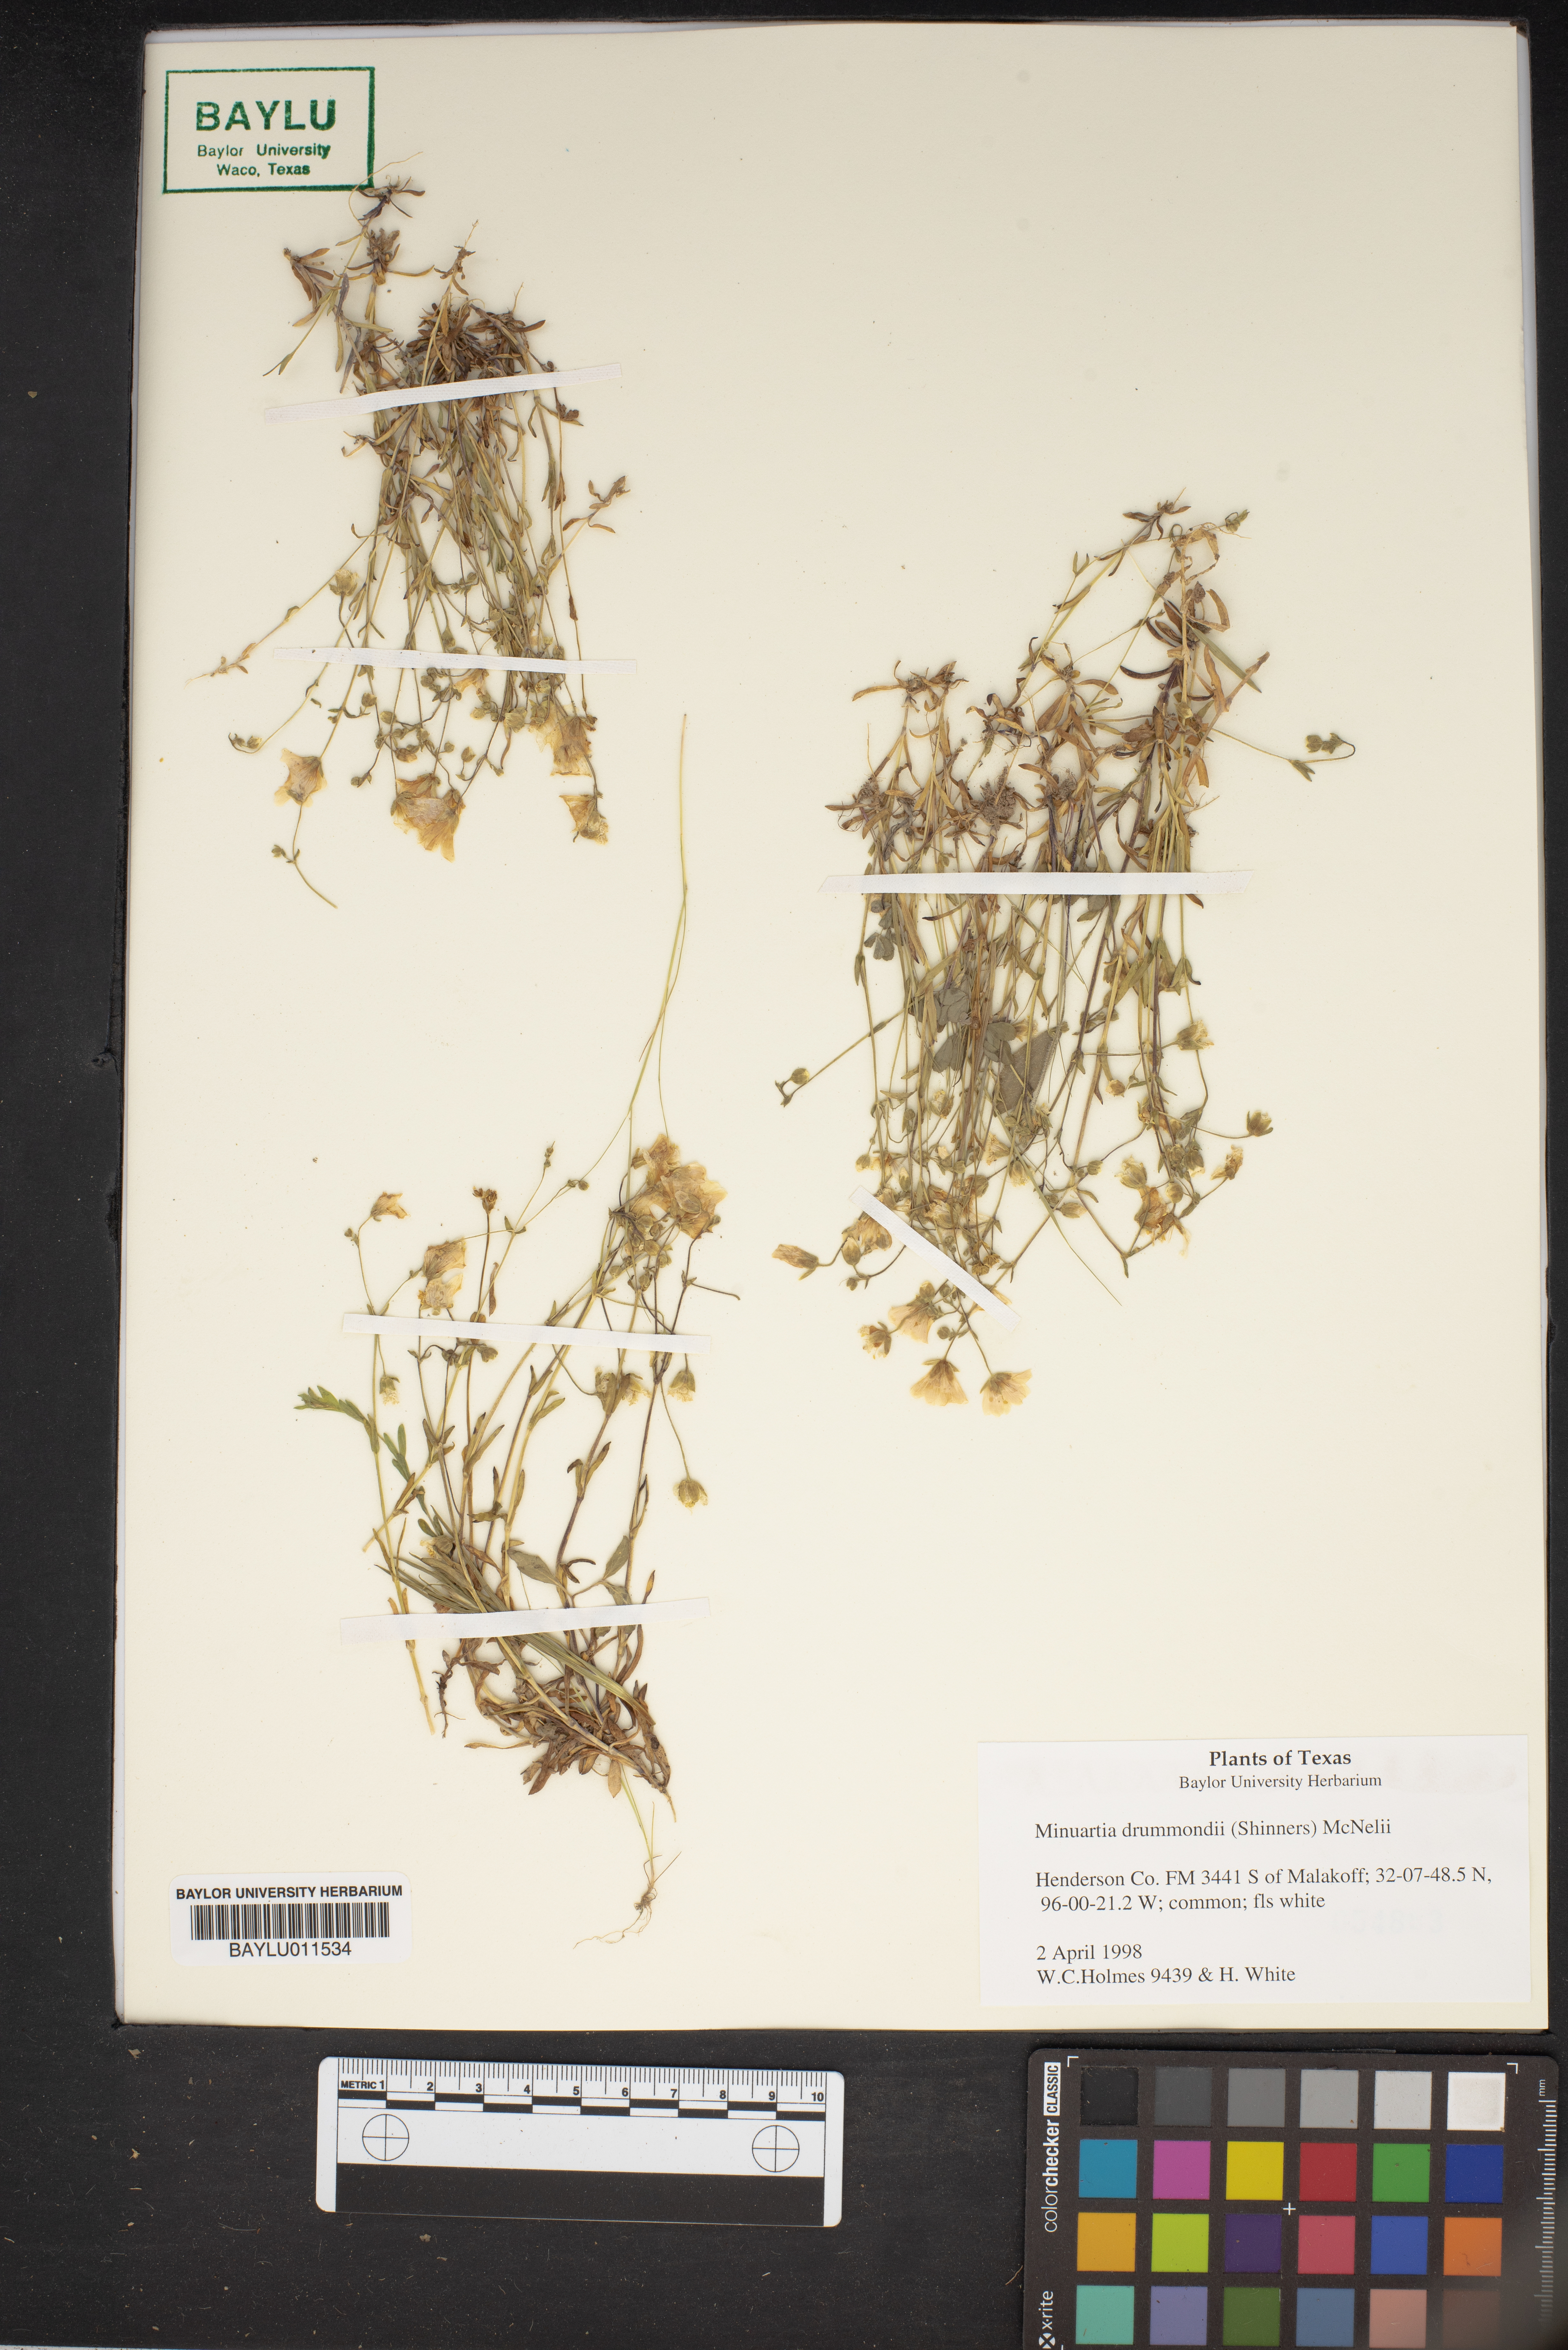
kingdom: Plantae
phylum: Tracheophyta
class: Magnoliopsida
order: Caryophyllales
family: Caryophyllaceae
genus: Geocarpon
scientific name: Geocarpon nuttallii
